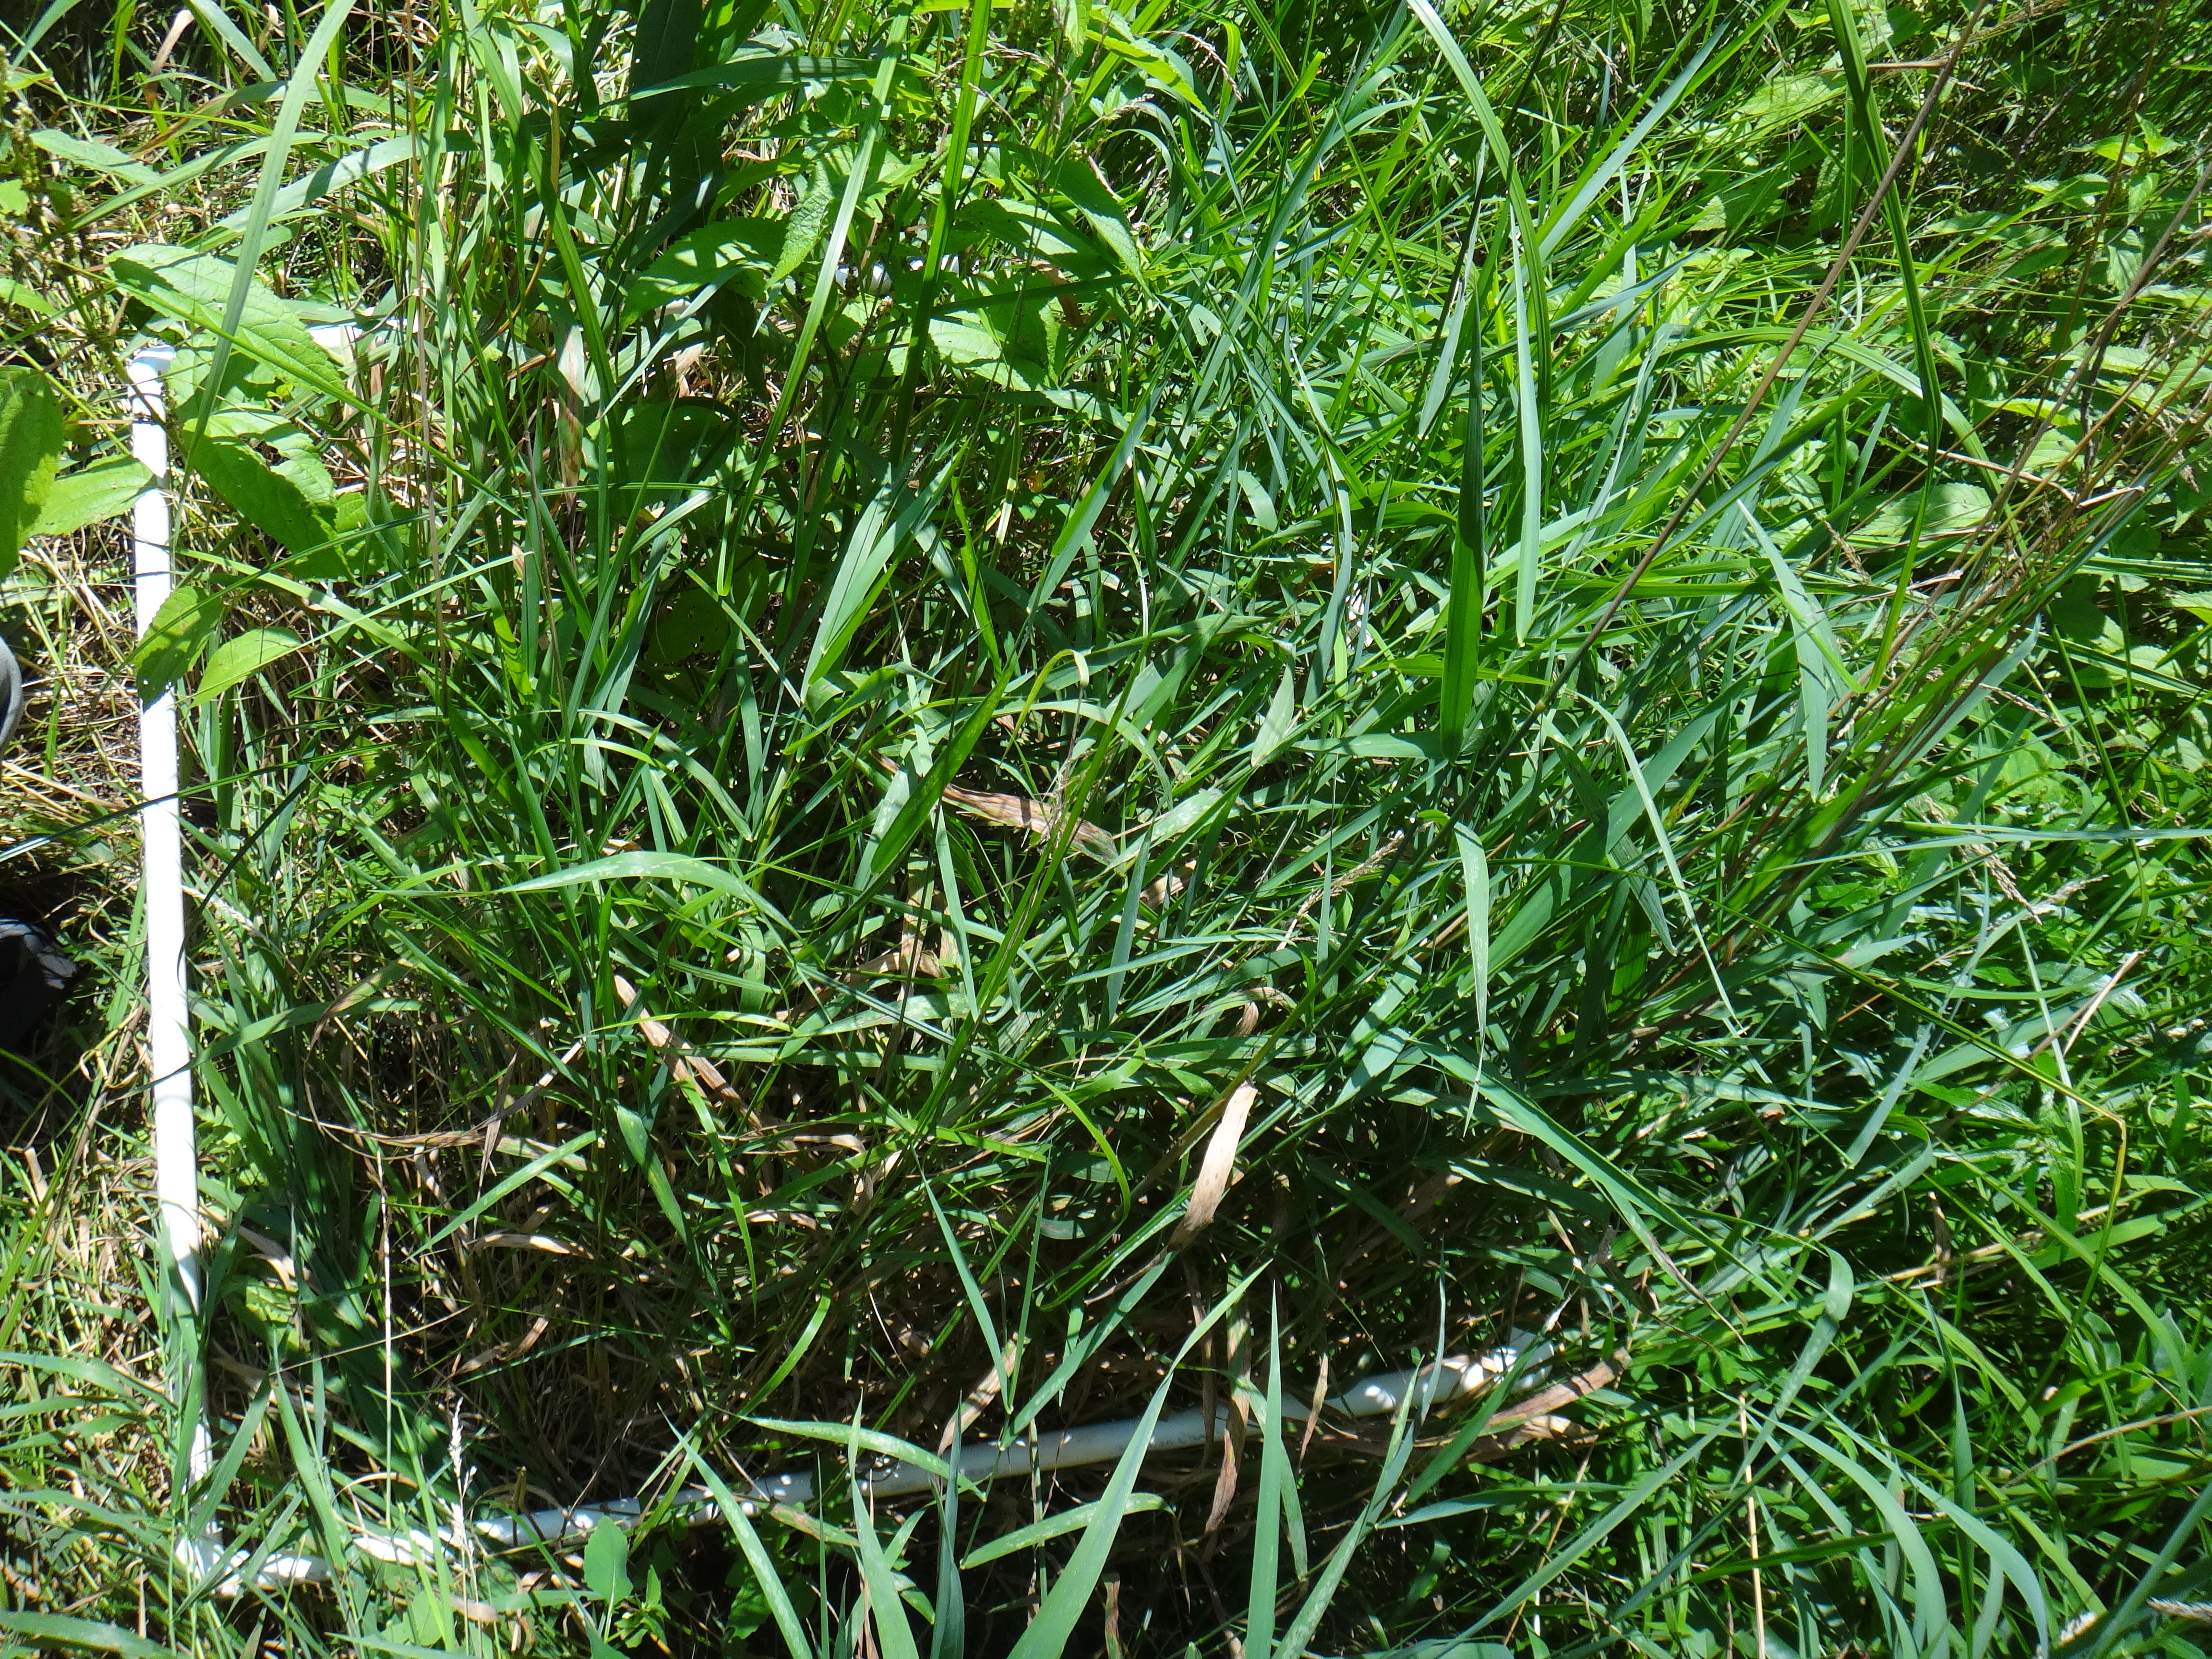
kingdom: Plantae
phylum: Tracheophyta
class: Magnoliopsida
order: Asterales
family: Asteraceae
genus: Symphyotrichum
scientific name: Symphyotrichum puniceum
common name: Bog aster
